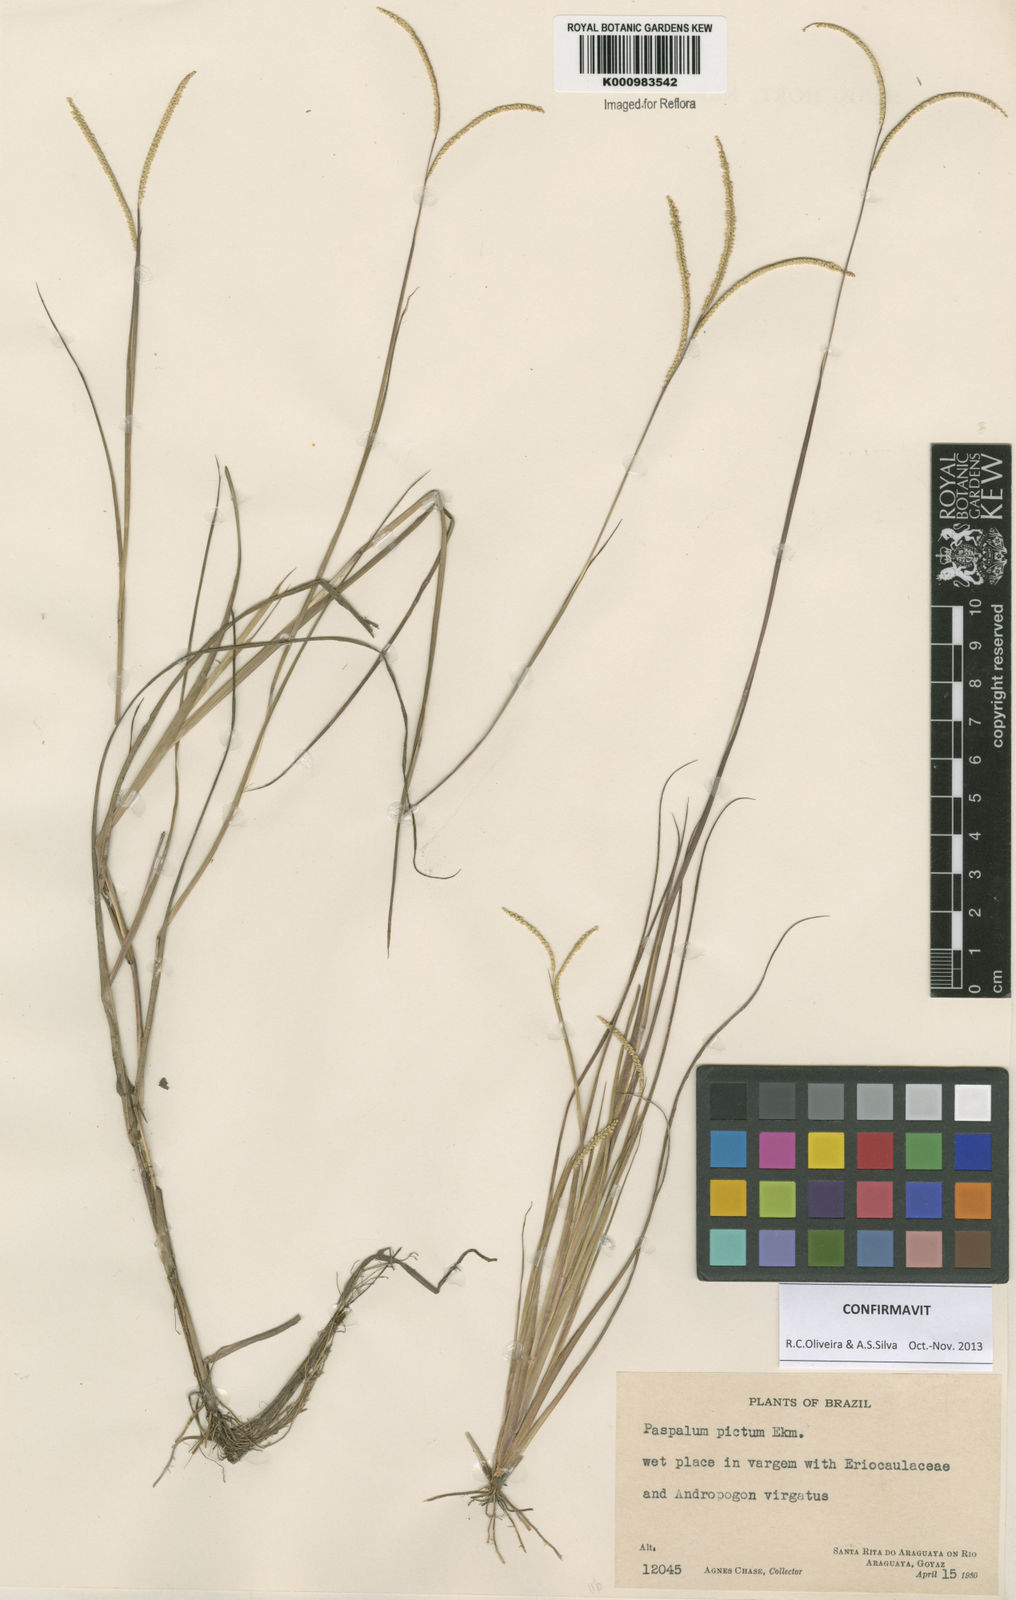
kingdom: Plantae
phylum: Tracheophyta
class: Liliopsida
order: Poales
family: Poaceae
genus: Paspalum
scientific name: Paspalum pictum
